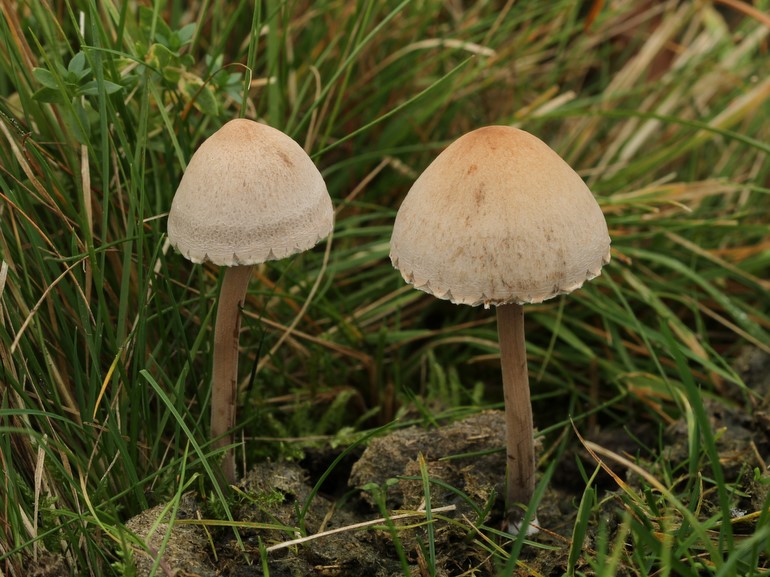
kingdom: Fungi
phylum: Basidiomycota
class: Agaricomycetes
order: Agaricales
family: Bolbitiaceae
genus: Panaeolus
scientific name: Panaeolus papilionaceus
